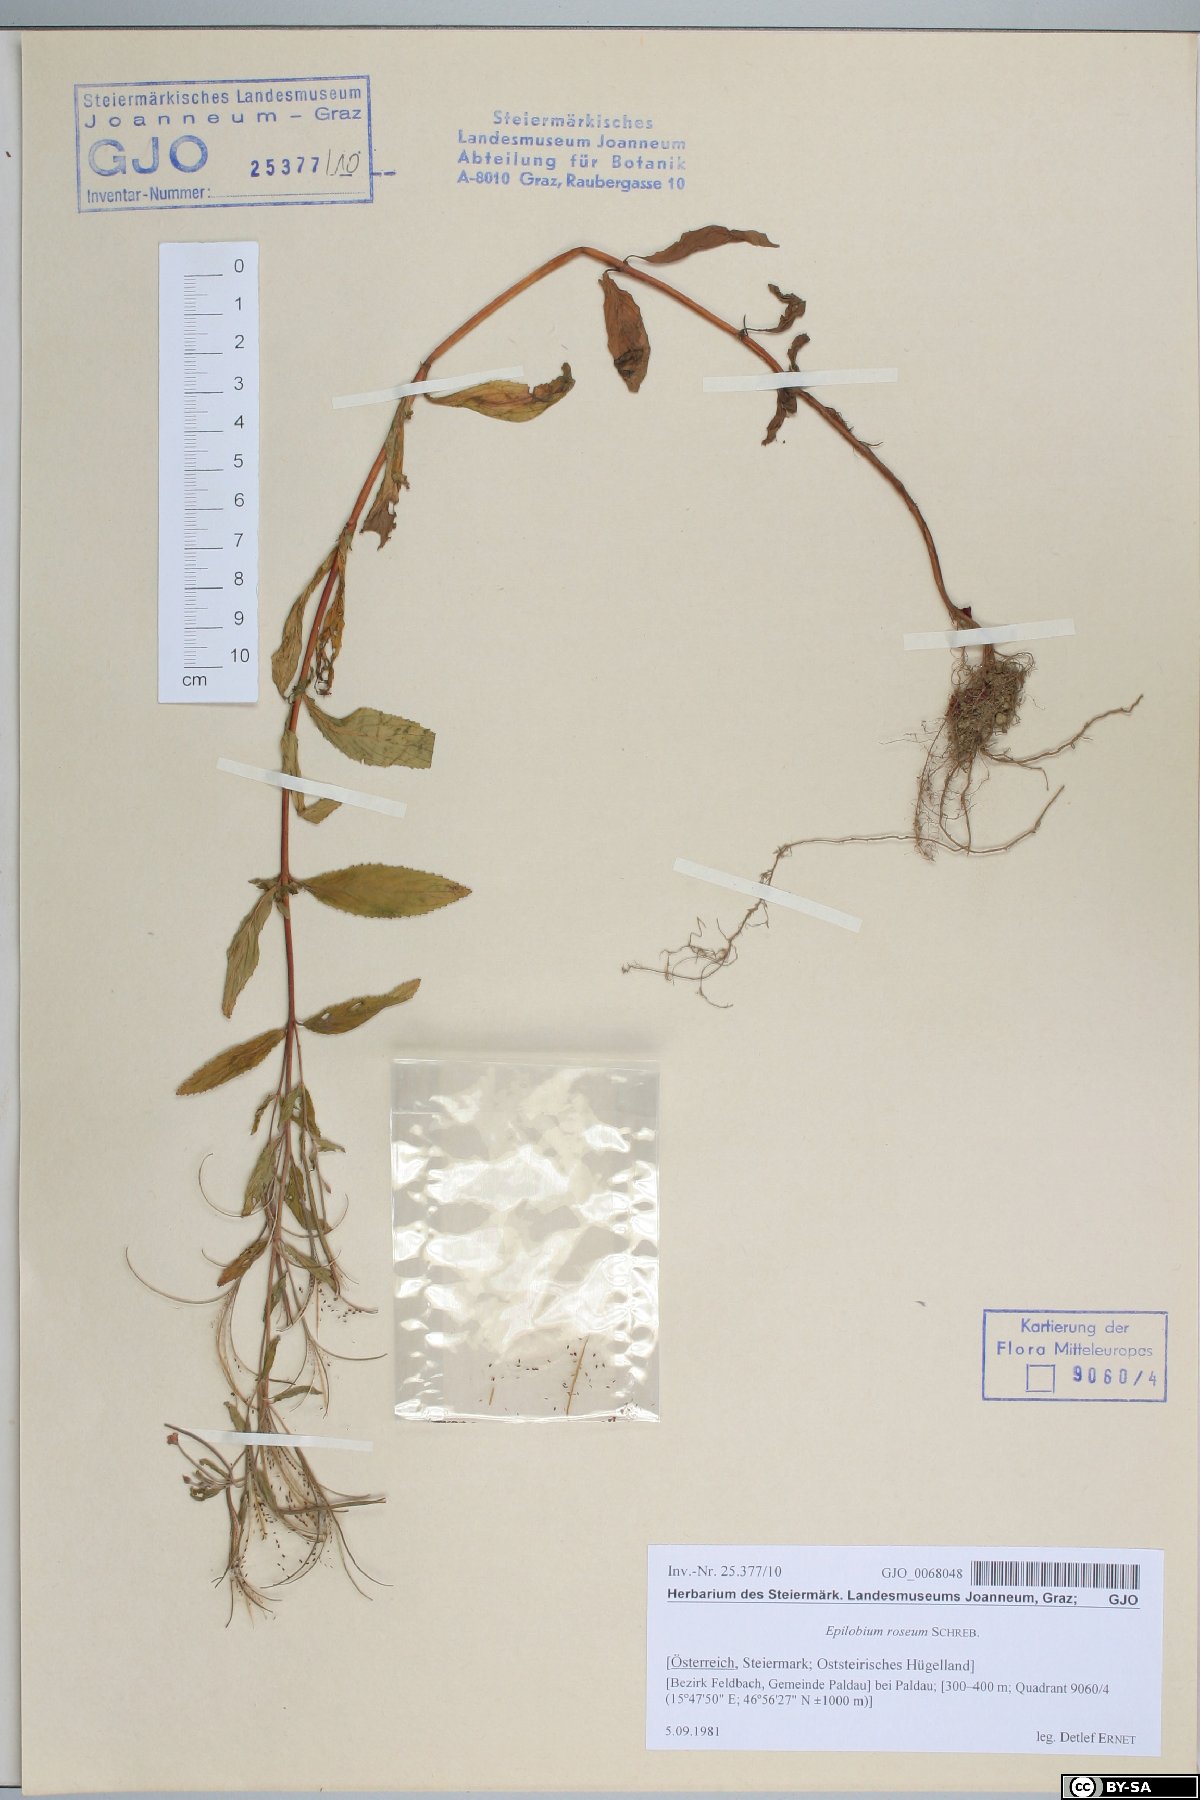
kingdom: Plantae
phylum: Tracheophyta
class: Magnoliopsida
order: Myrtales
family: Onagraceae
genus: Epilobium
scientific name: Epilobium roseum
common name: Pale willowherb
